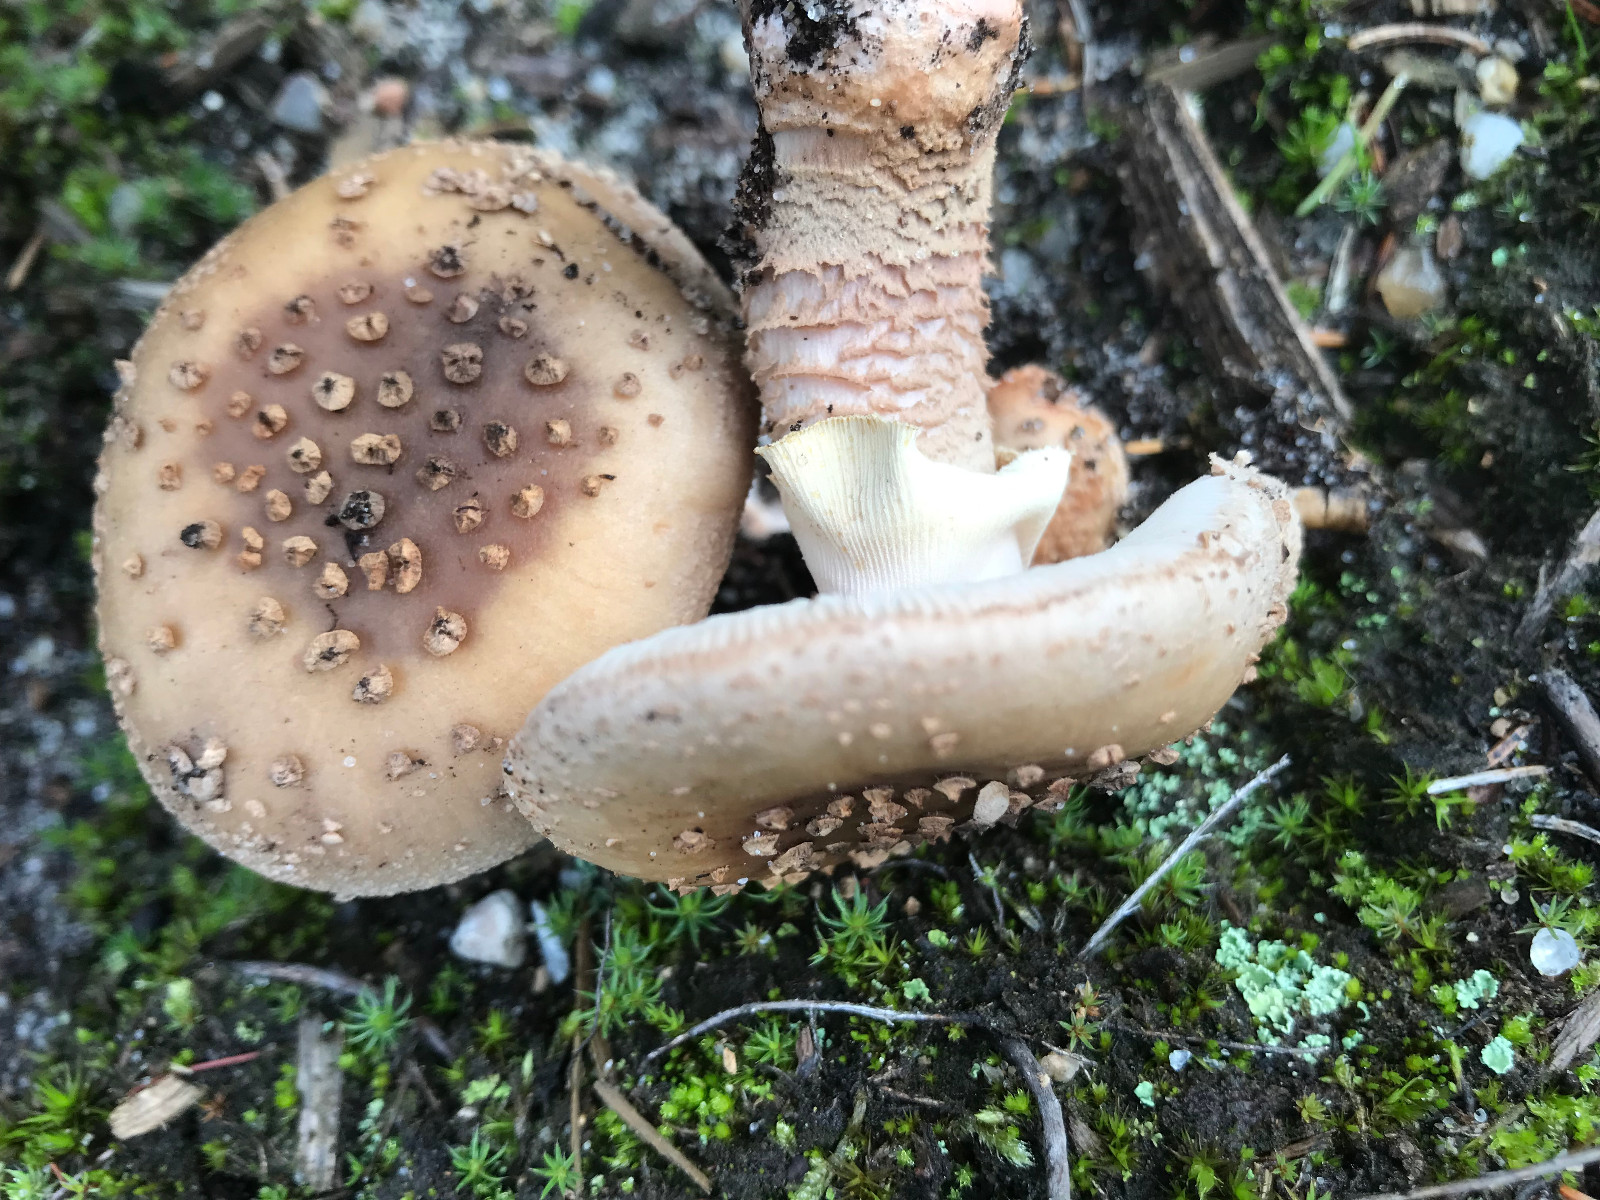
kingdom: Fungi
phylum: Basidiomycota
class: Agaricomycetes
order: Agaricales
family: Amanitaceae
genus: Amanita
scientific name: Amanita rubescens
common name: rødmende fluesvamp
